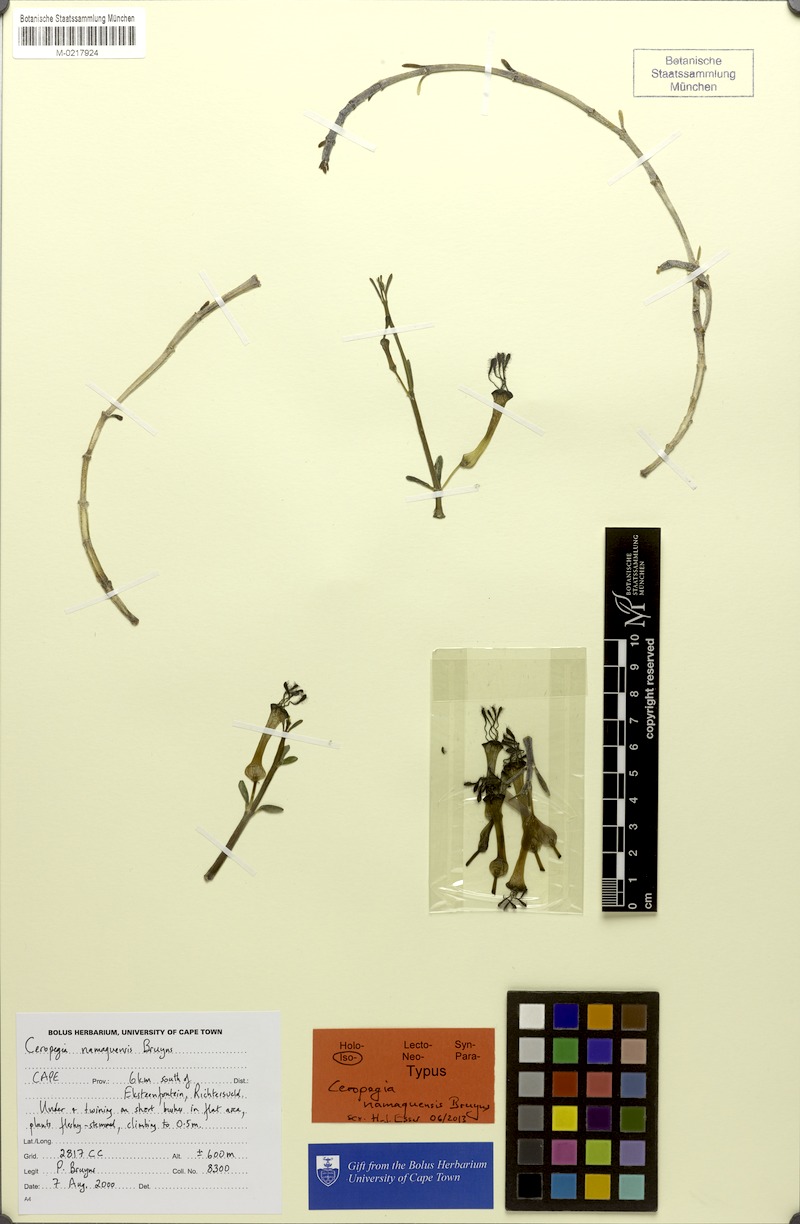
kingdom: Plantae
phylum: Tracheophyta
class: Magnoliopsida
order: Gentianales
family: Apocynaceae
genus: Ceropegia
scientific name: Ceropegia namaquensis
